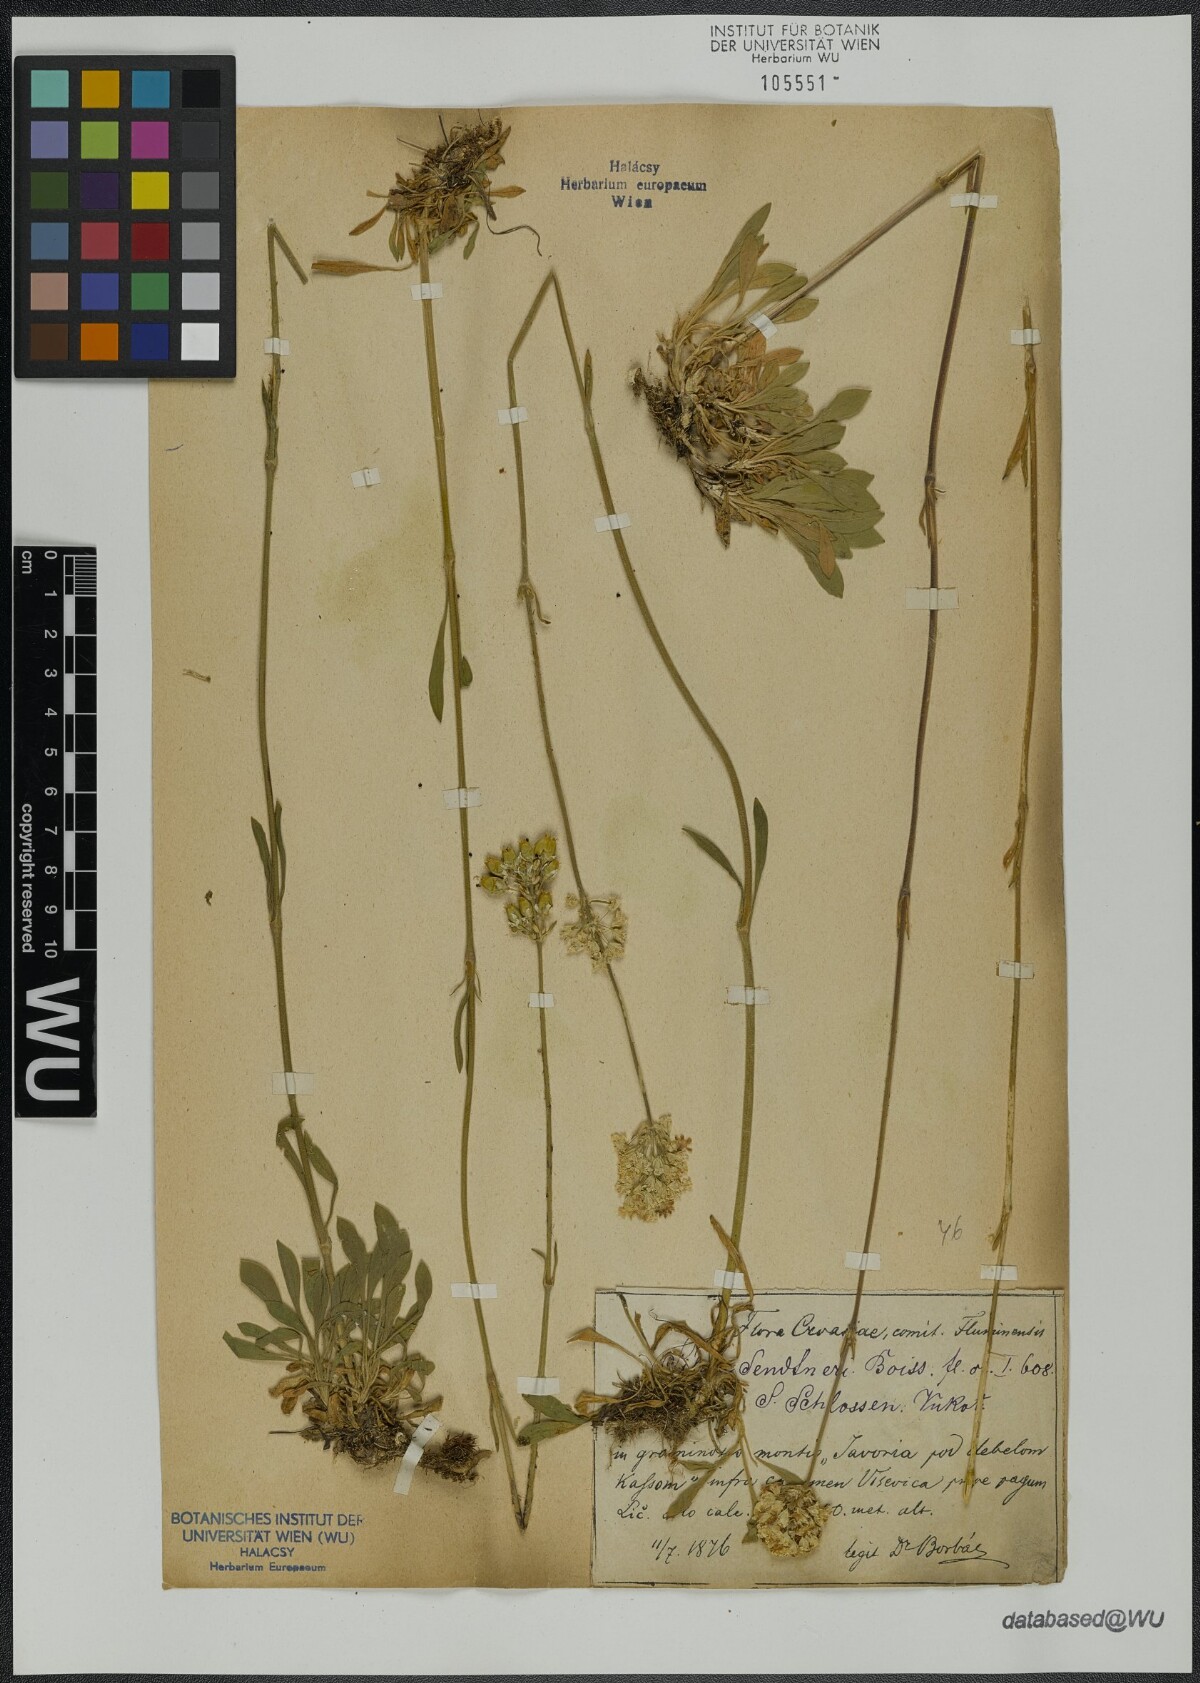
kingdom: Plantae
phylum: Tracheophyta
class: Magnoliopsida
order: Caryophyllales
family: Caryophyllaceae
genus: Silene
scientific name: Silene sendtneri
